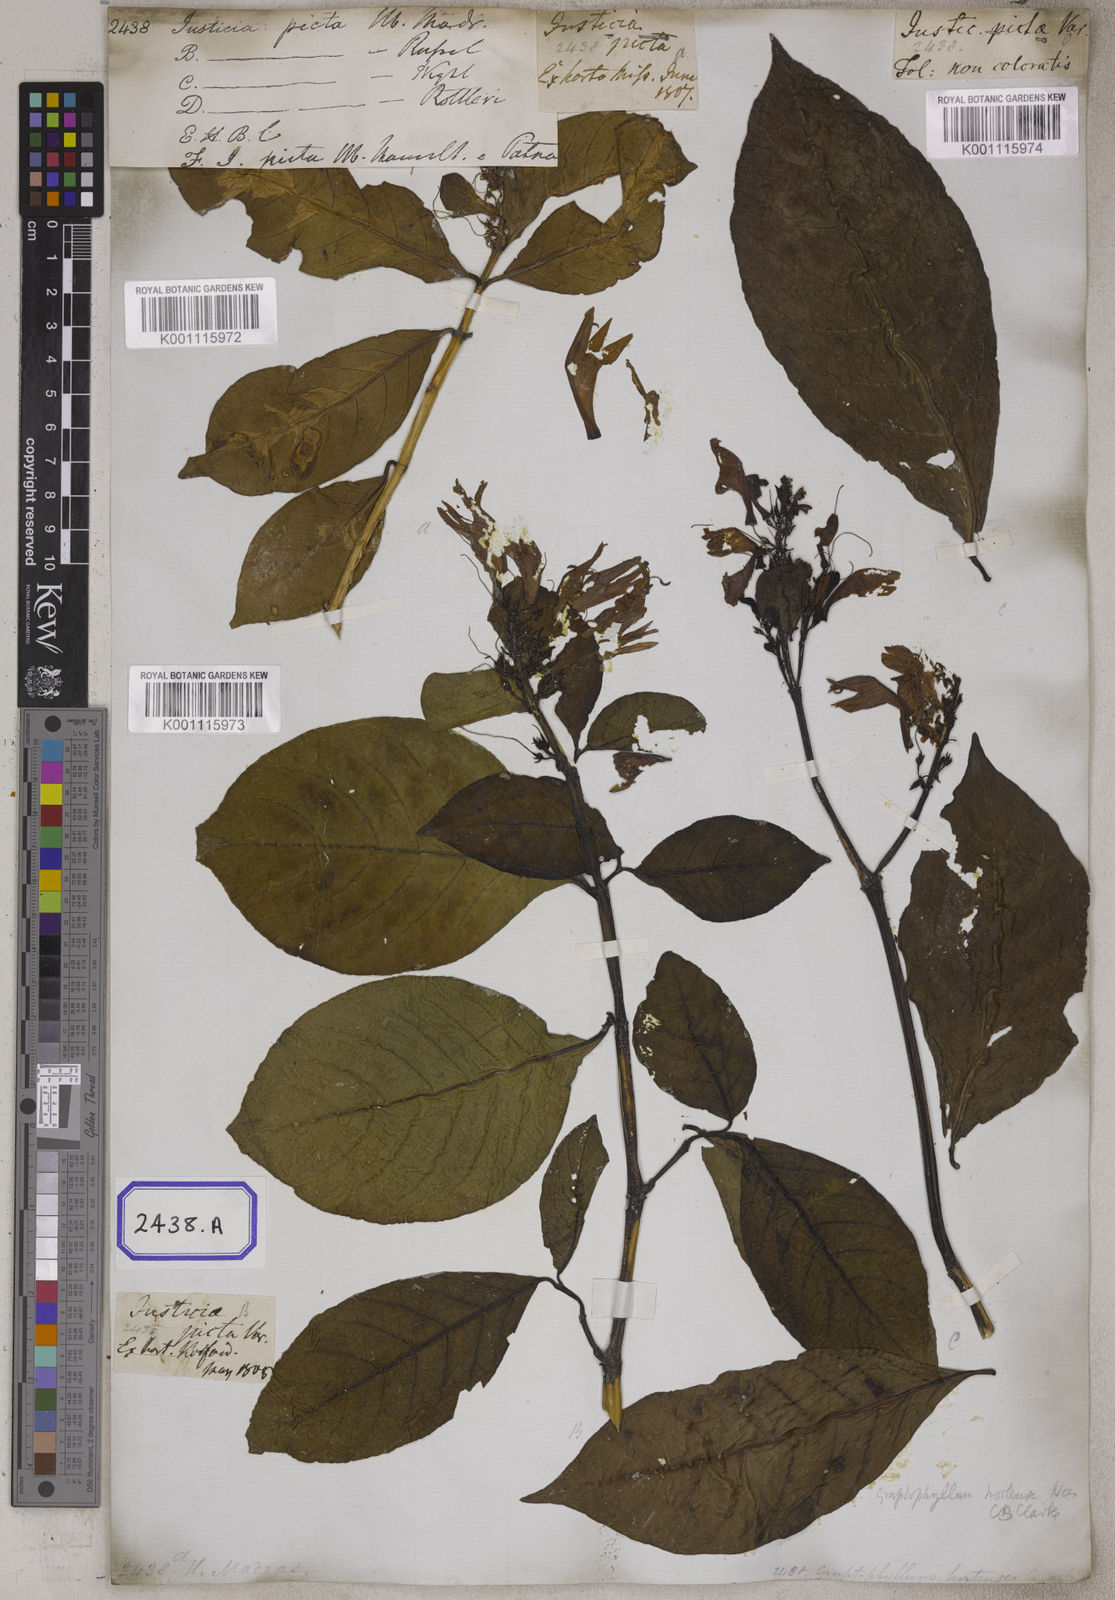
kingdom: Plantae
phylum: Tracheophyta
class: Magnoliopsida
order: Lamiales
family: Acanthaceae
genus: Graptophyllum
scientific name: Graptophyllum pictum
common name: Caricature-plant
